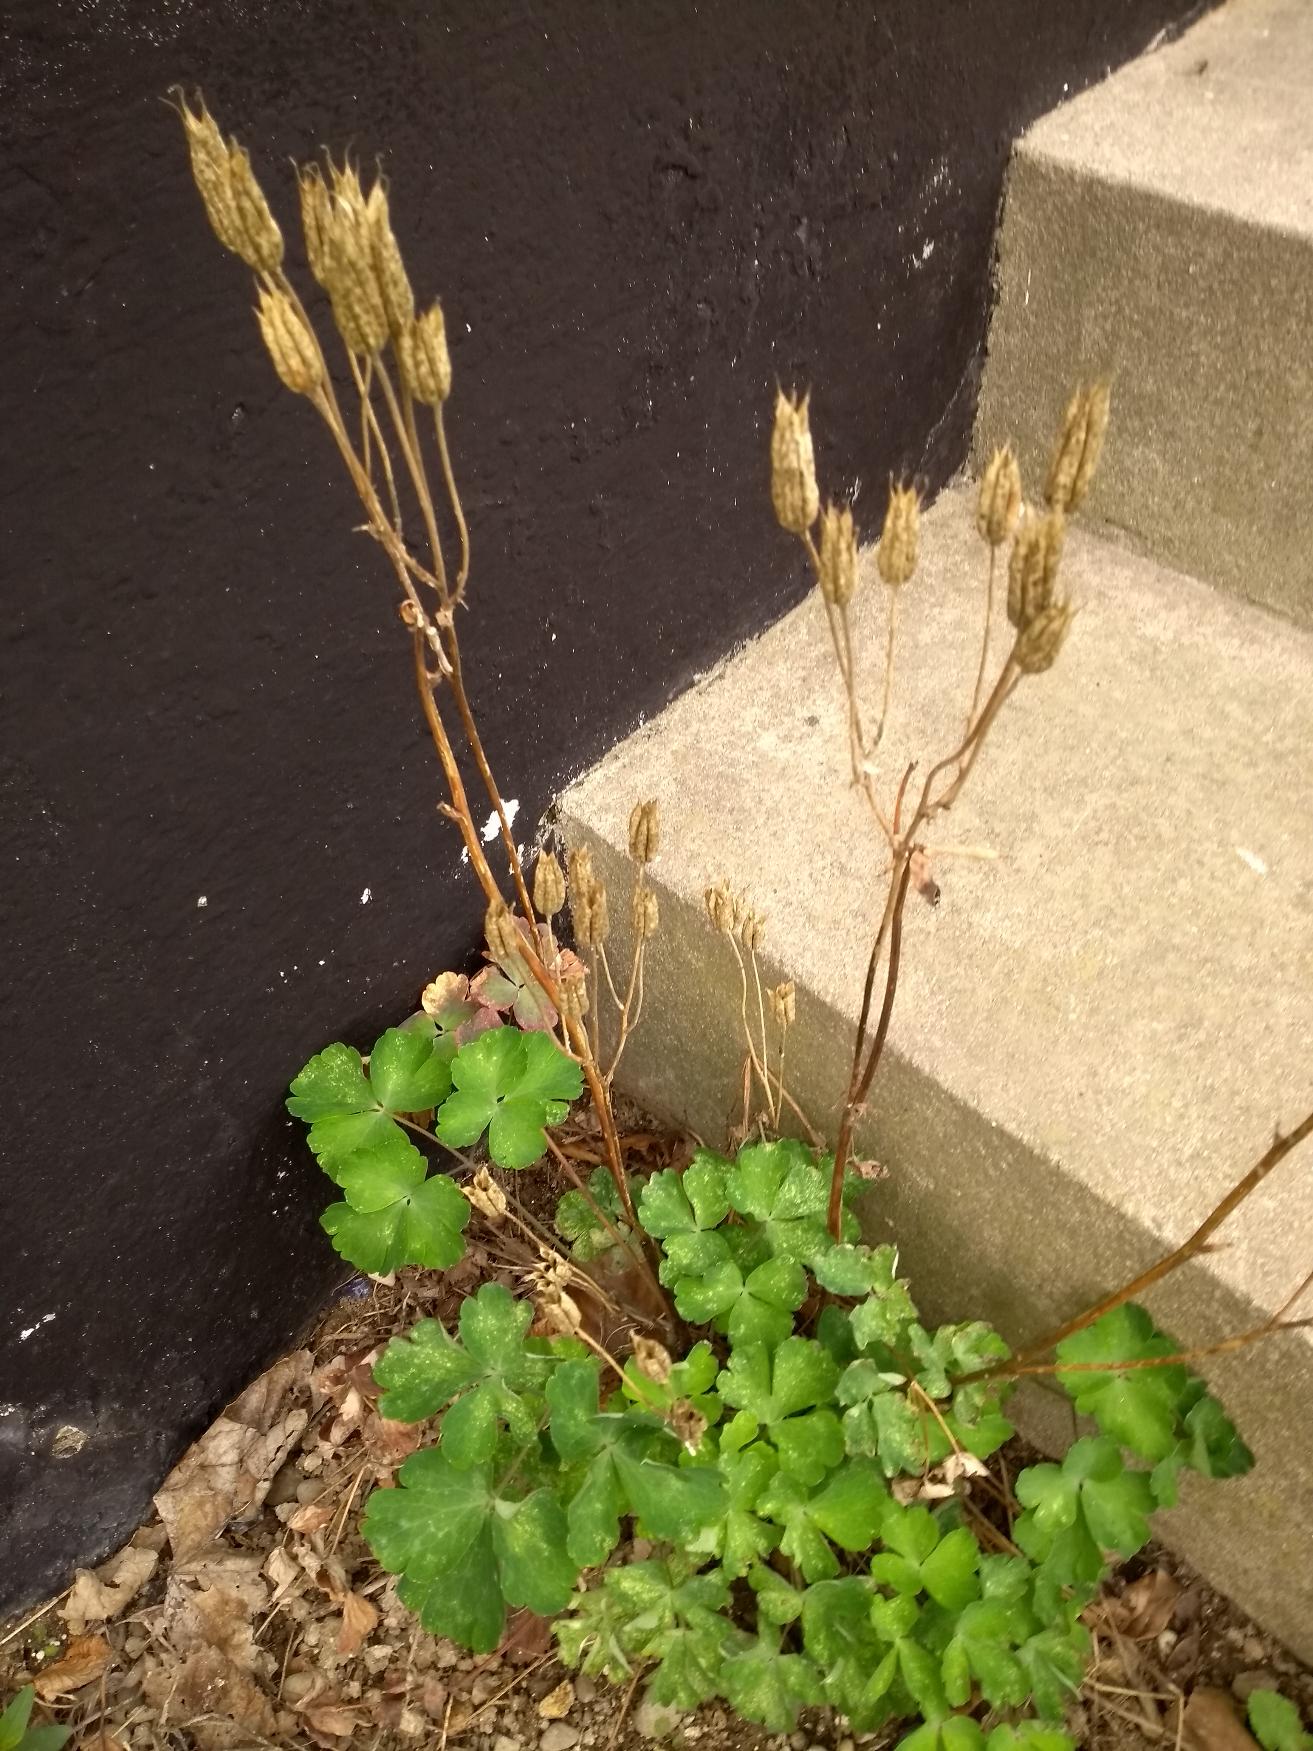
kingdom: Plantae
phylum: Tracheophyta
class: Magnoliopsida
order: Ranunculales
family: Ranunculaceae
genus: Aquilegia
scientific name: Aquilegia vulgaris
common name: Akeleje
